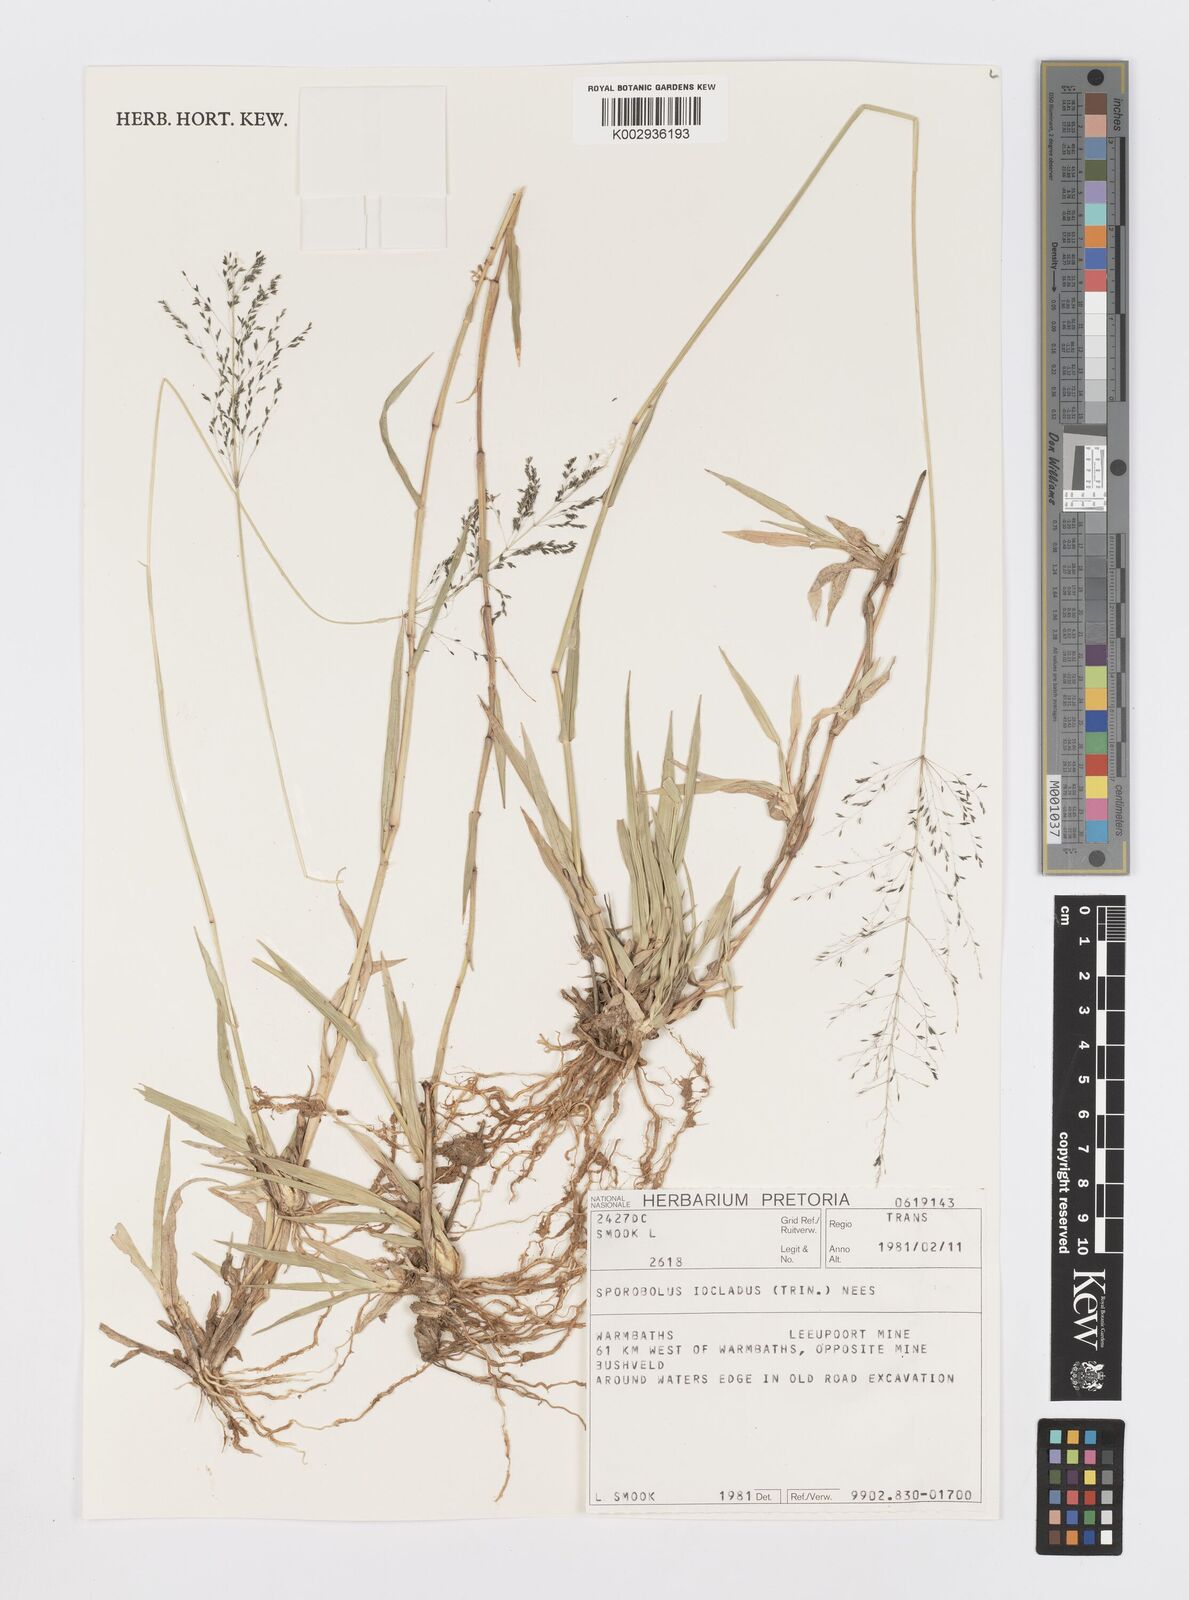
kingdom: Plantae
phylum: Tracheophyta
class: Liliopsida
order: Poales
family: Poaceae
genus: Sporobolus
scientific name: Sporobolus ioclados
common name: Pan dropseed
